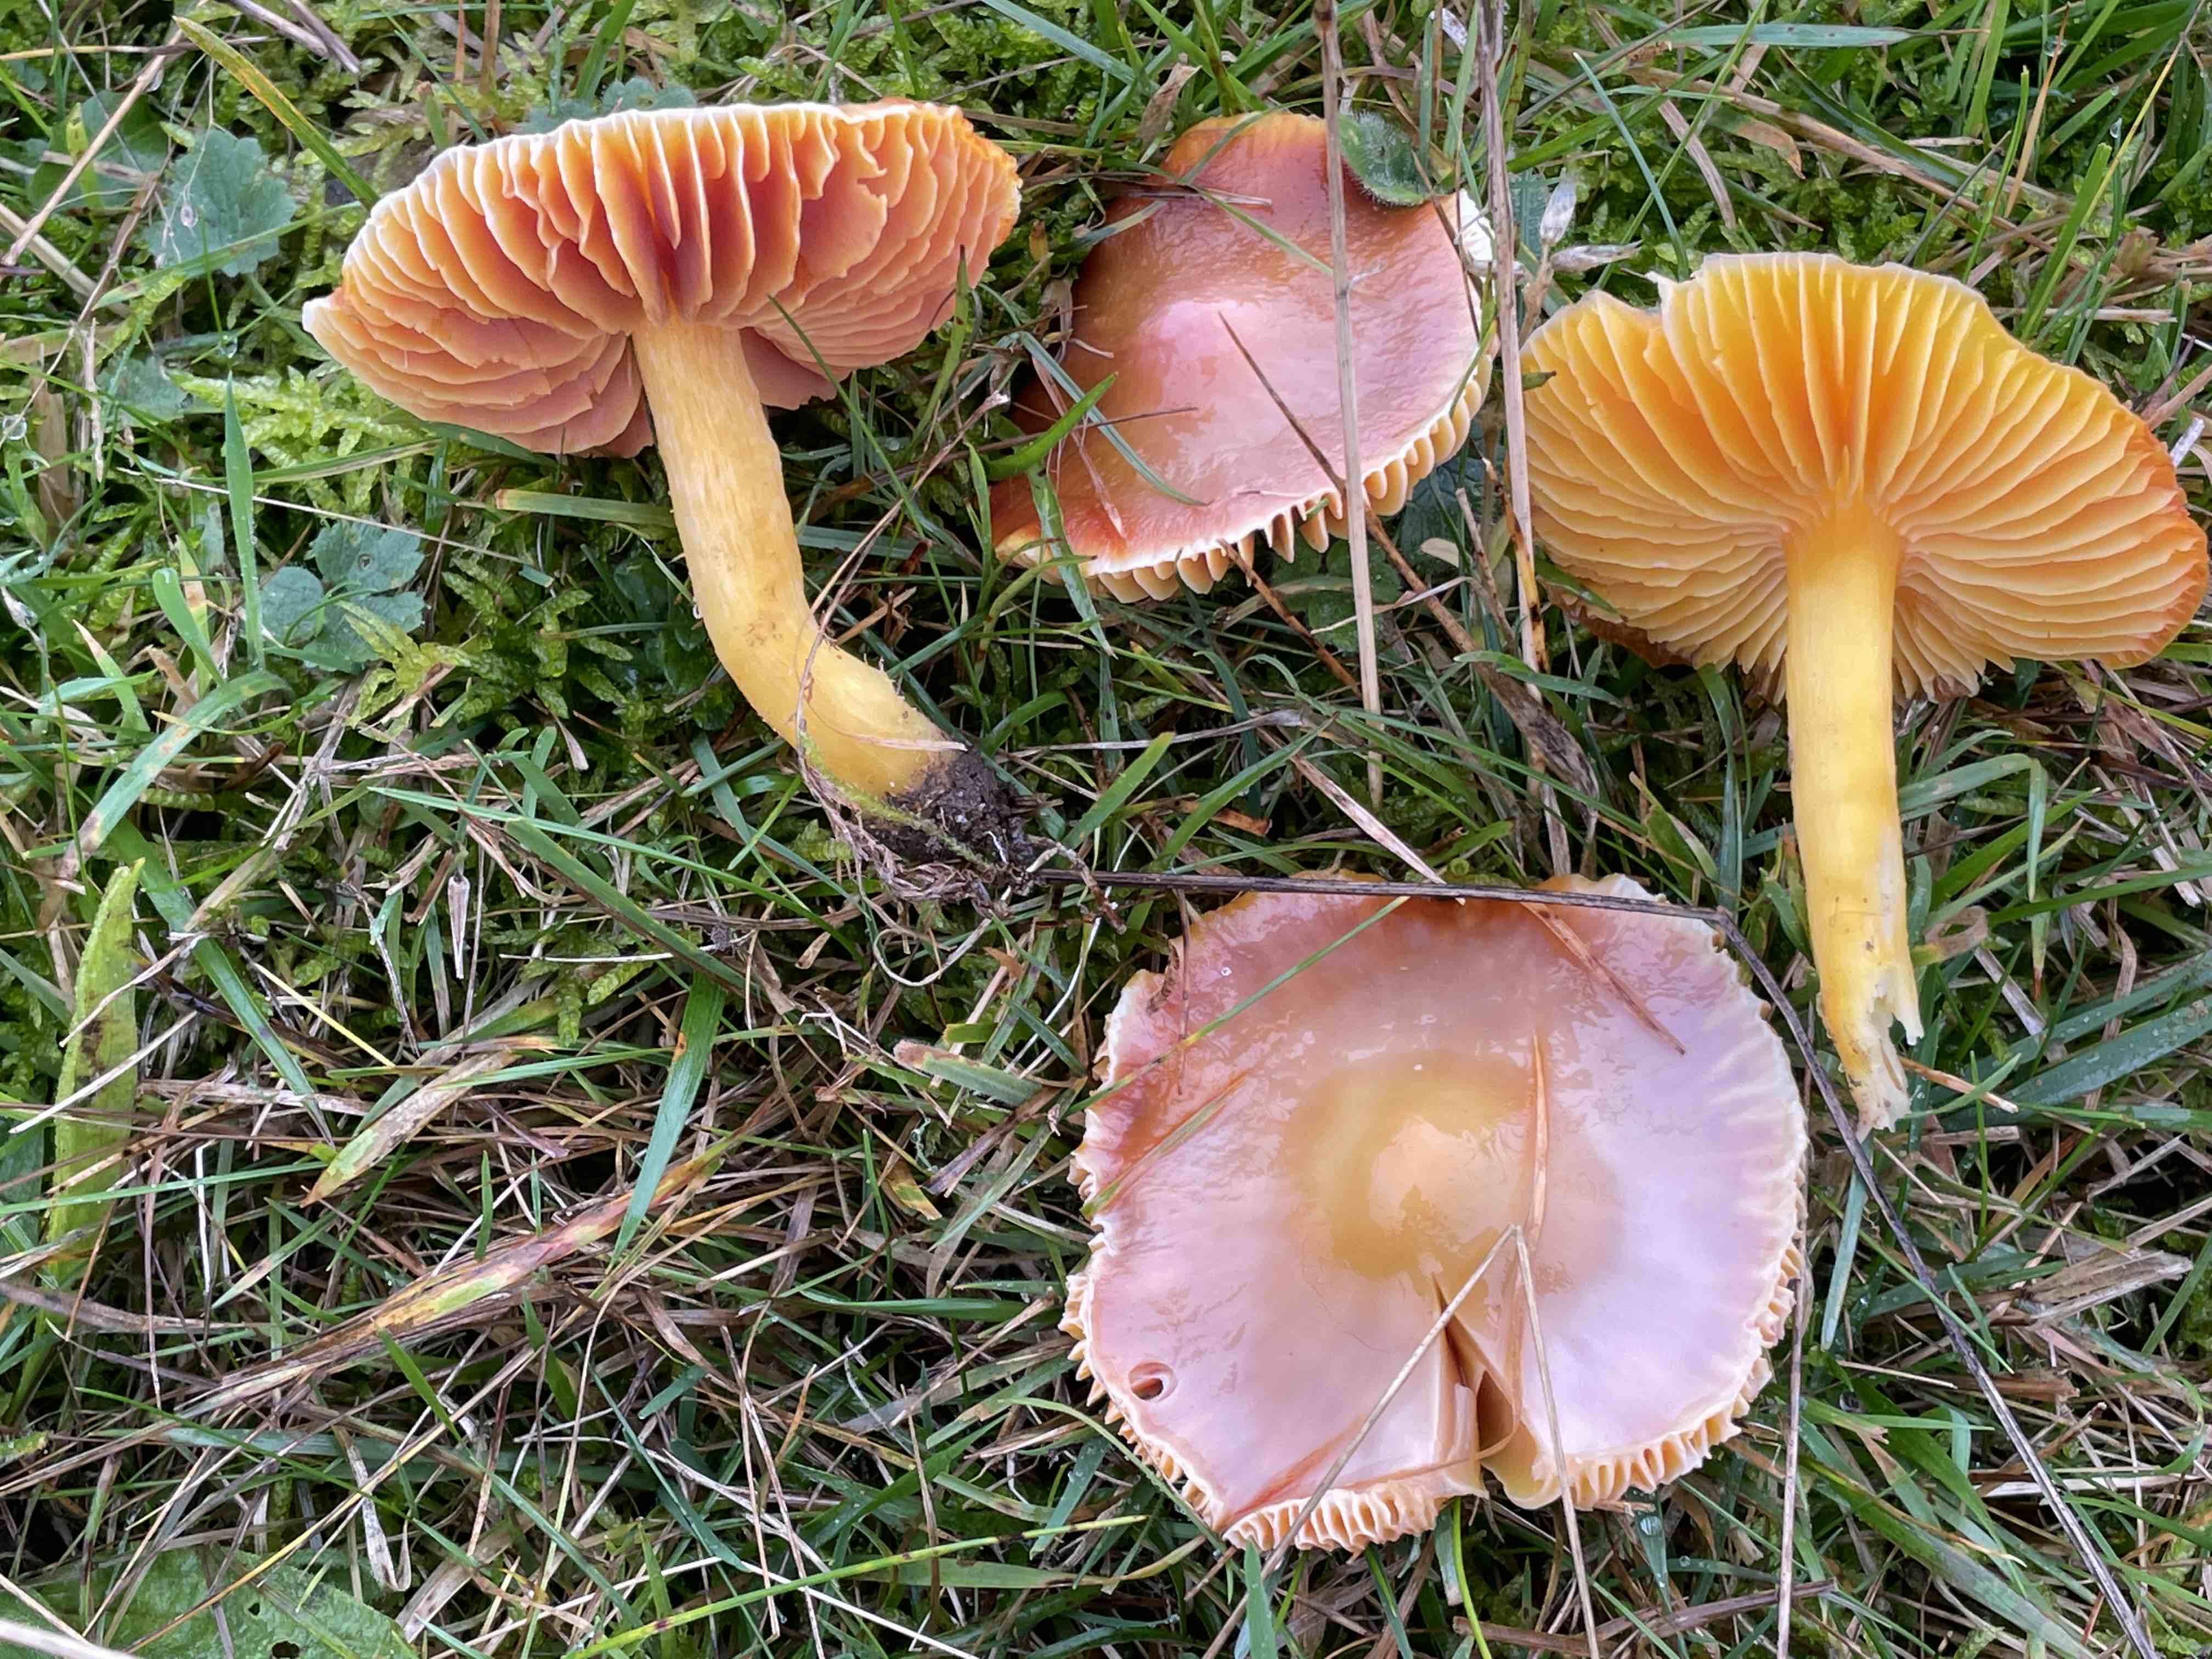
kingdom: Fungi
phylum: Basidiomycota
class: Agaricomycetes
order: Agaricales
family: Hygrophoraceae
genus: Hygrocybe
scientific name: Hygrocybe punicea
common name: skarlagen-vokshat
